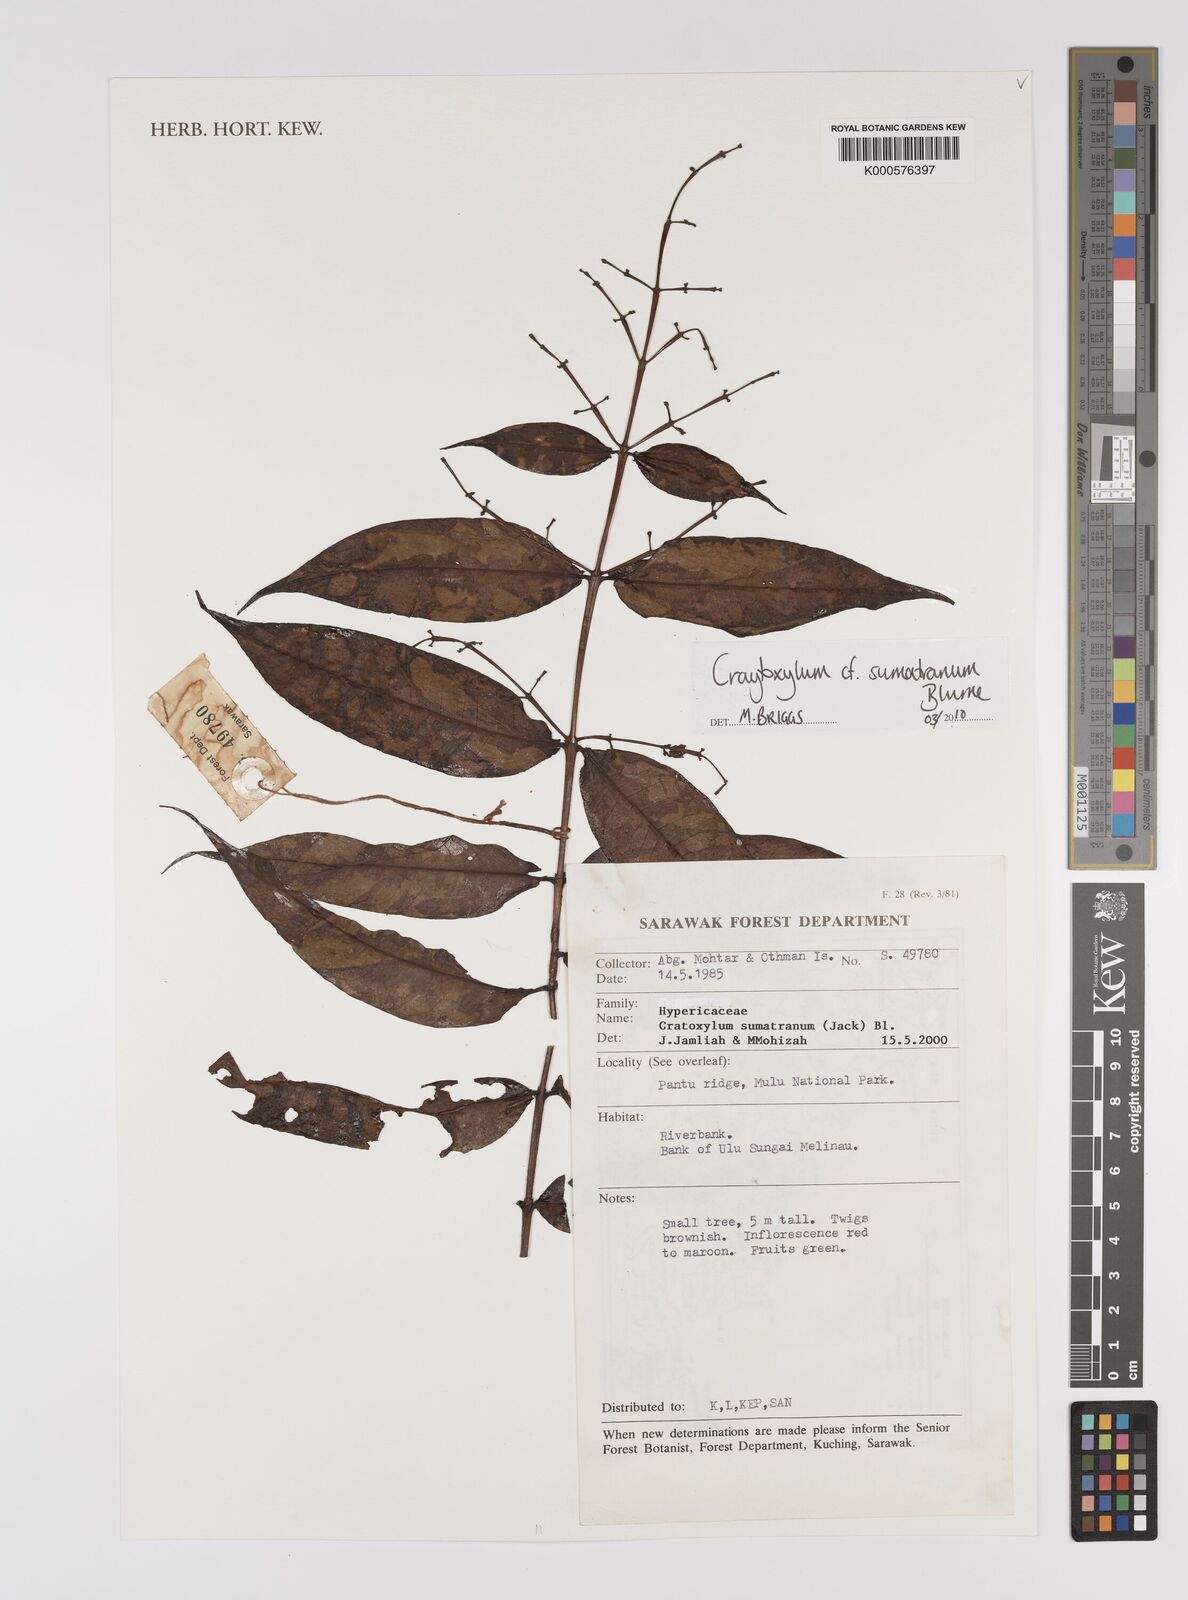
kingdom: Plantae
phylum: Tracheophyta
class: Magnoliopsida
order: Malpighiales
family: Hypericaceae
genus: Cratoxylum
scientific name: Cratoxylum sumatranum
